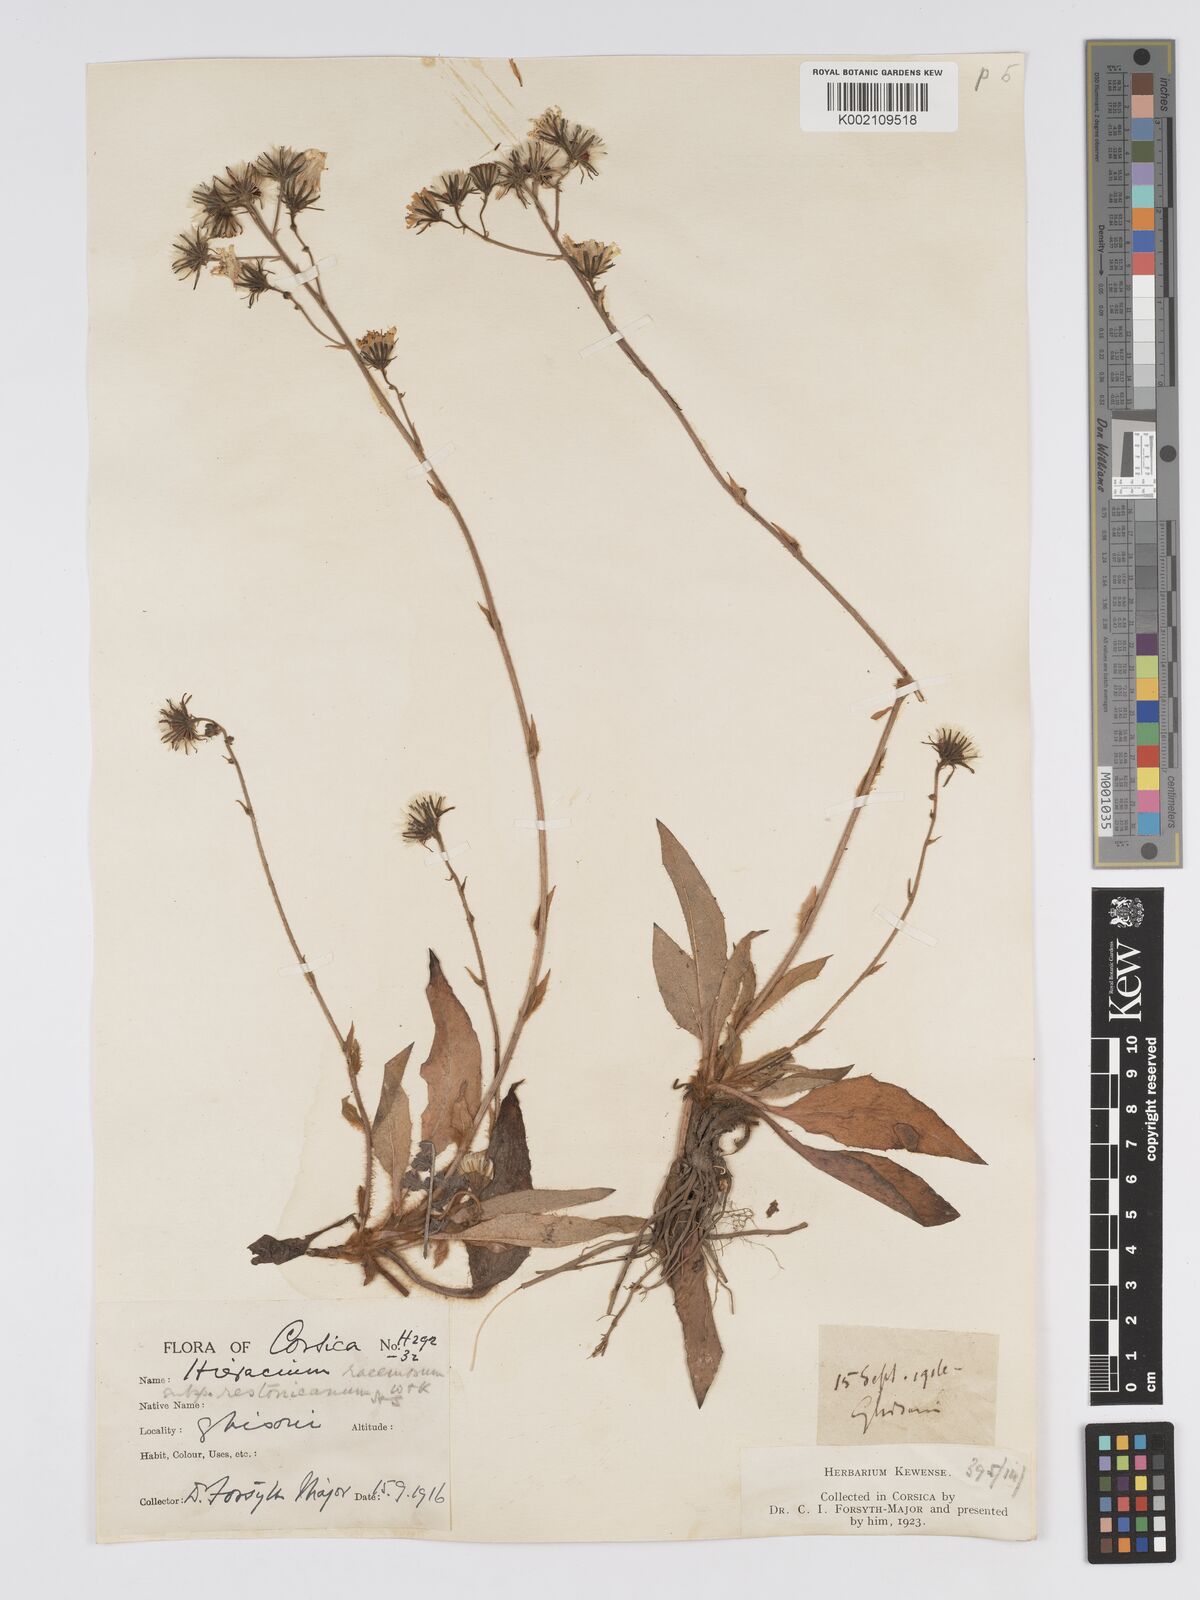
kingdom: Plantae
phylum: Tracheophyta
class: Magnoliopsida
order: Asterales
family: Asteraceae
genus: Hieracium
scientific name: Hieracium
